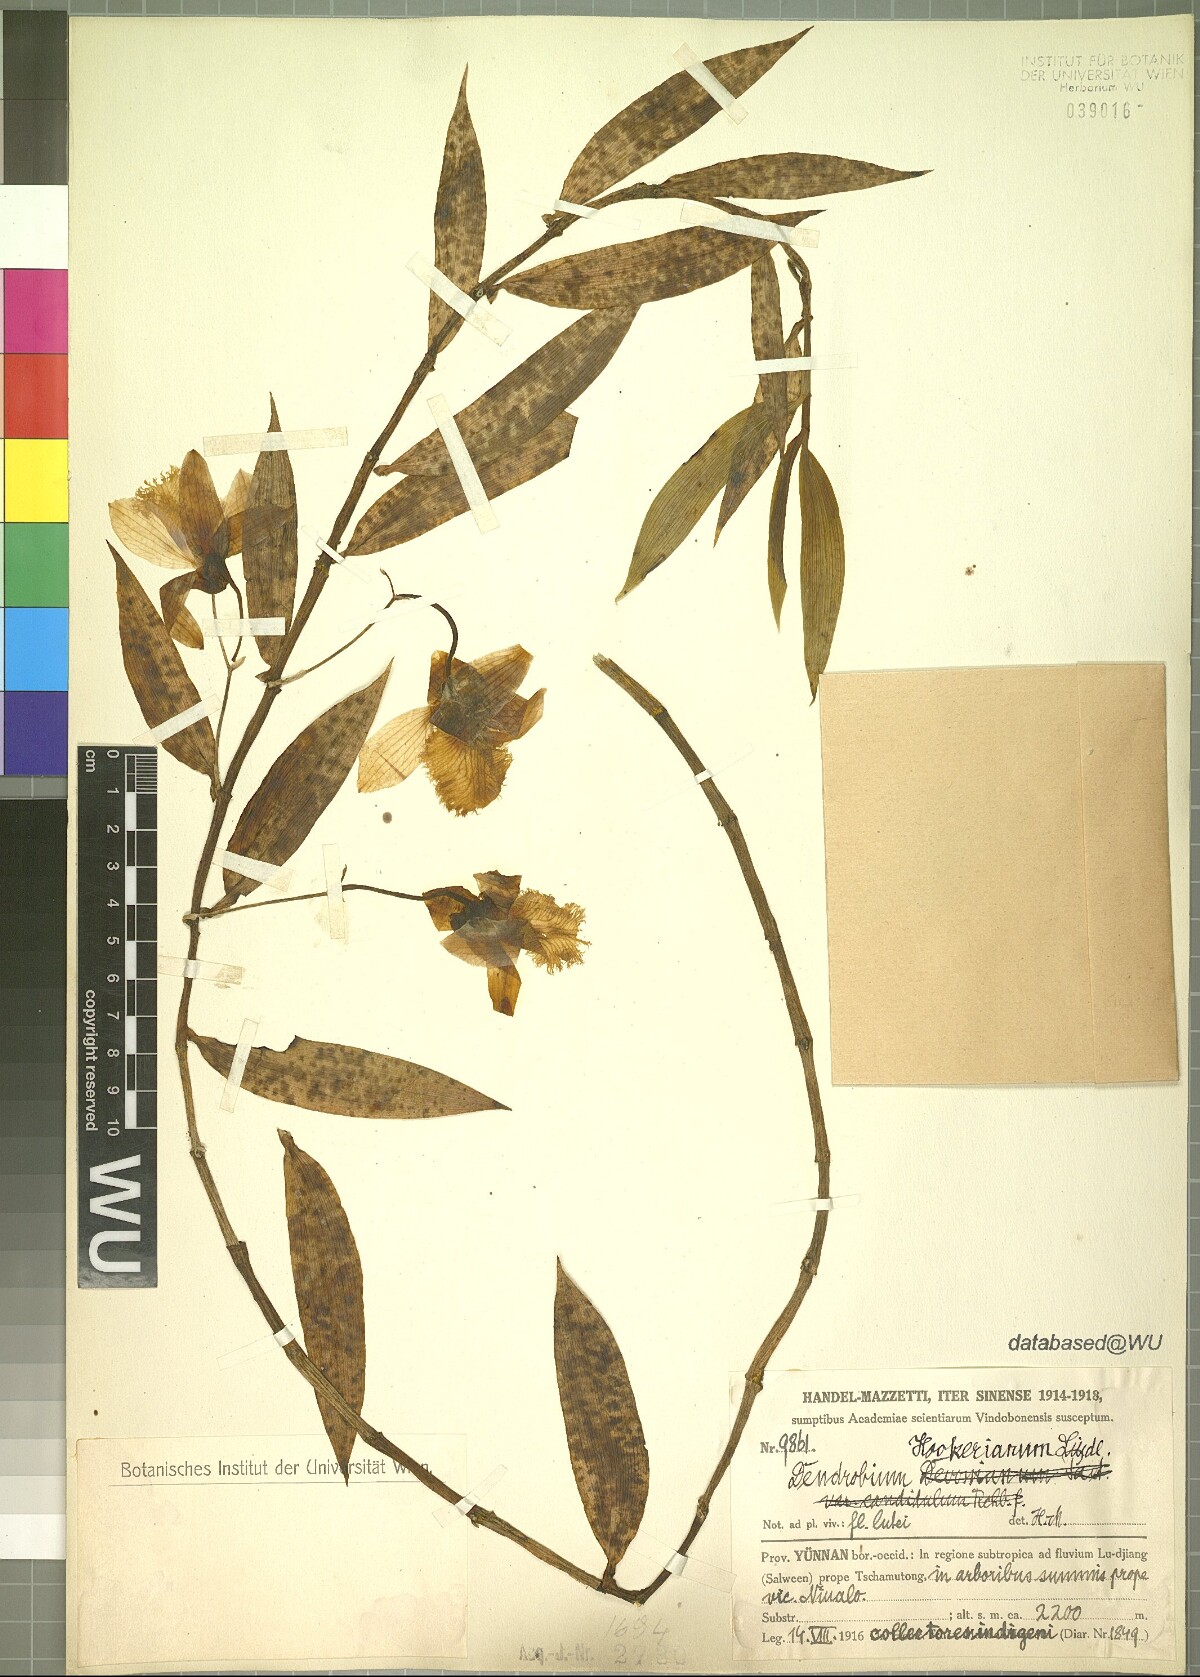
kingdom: Plantae
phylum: Tracheophyta
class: Liliopsida
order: Asparagales
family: Orchidaceae
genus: Dendrobium
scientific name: Dendrobium hookerianum
